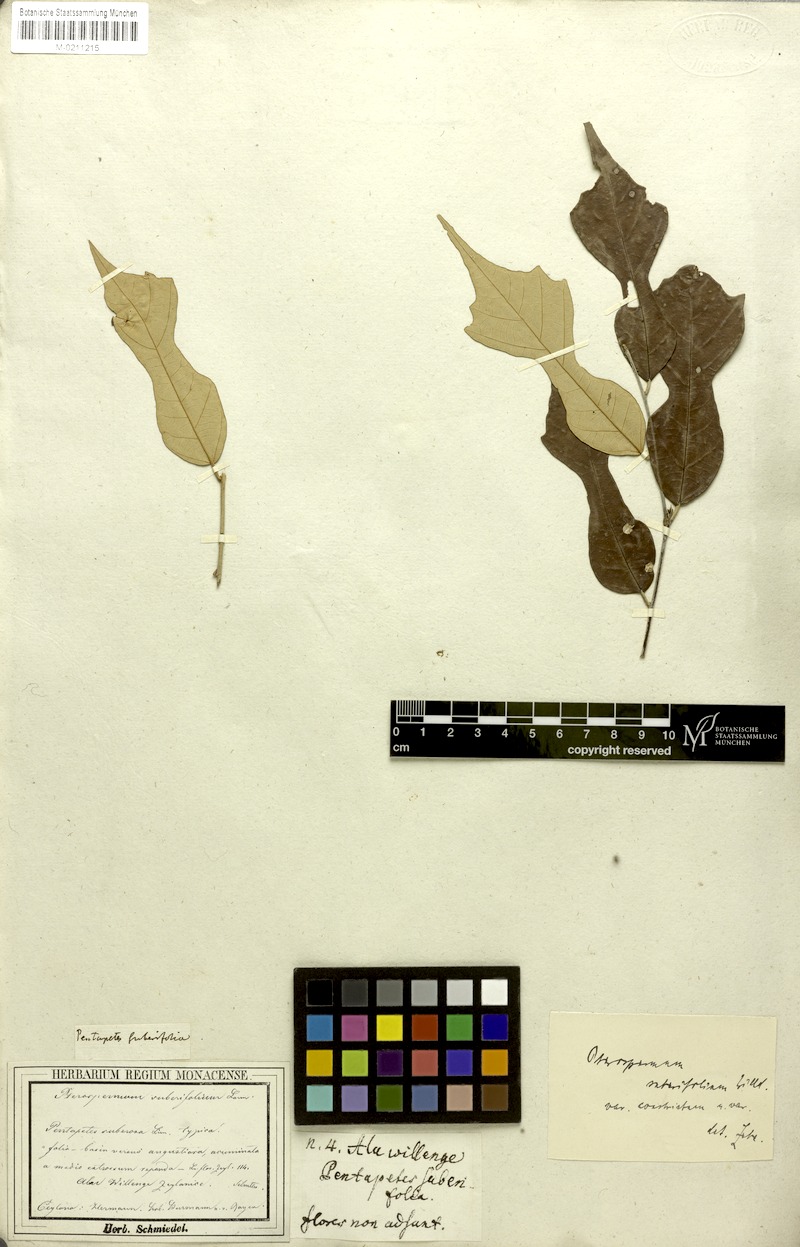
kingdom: Plantae
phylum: Tracheophyta
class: Magnoliopsida
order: Malvales
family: Malvaceae
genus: Pterospermum
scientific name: Pterospermum suberifolium
